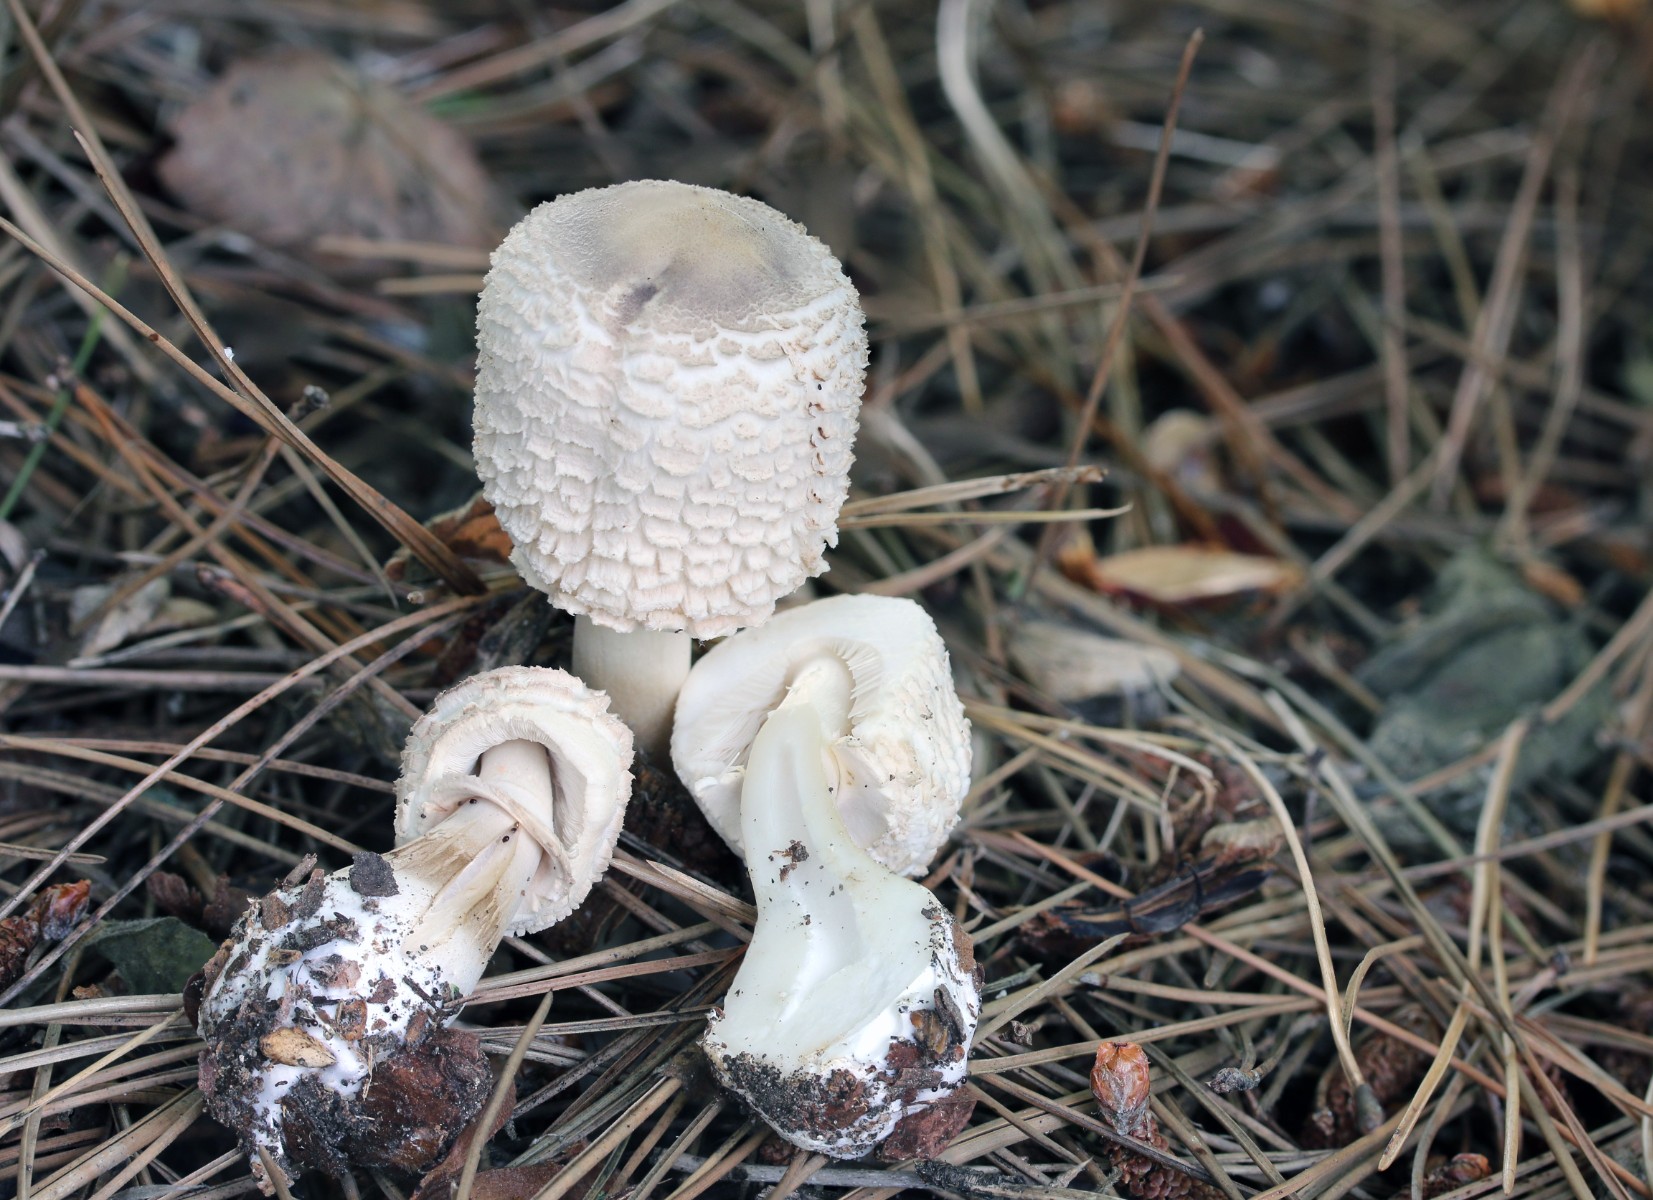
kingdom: Fungi
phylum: Basidiomycota
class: Agaricomycetes
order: Agaricales
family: Agaricaceae
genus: Leucoagaricus
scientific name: Leucoagaricus nympharum
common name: gran-silkehat
